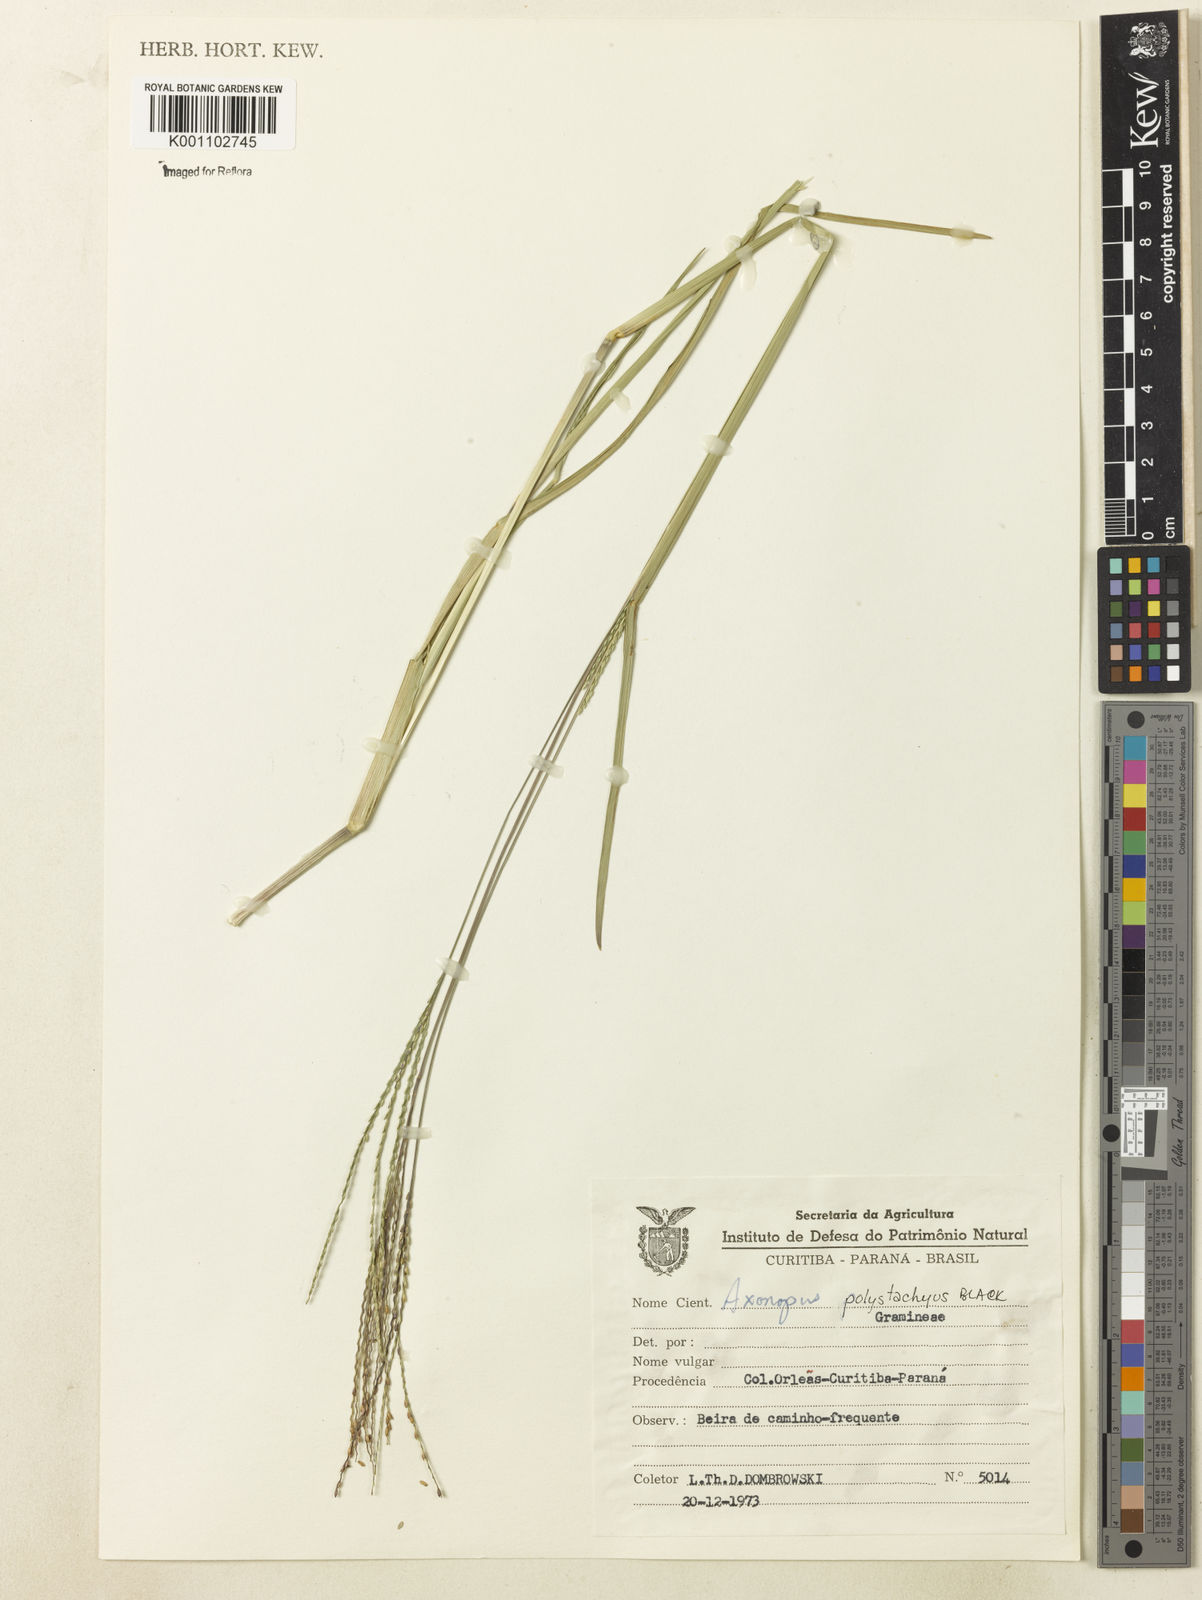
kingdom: Plantae
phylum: Tracheophyta
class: Liliopsida
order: Poales
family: Poaceae
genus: Axonopus
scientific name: Axonopus polystachyus
